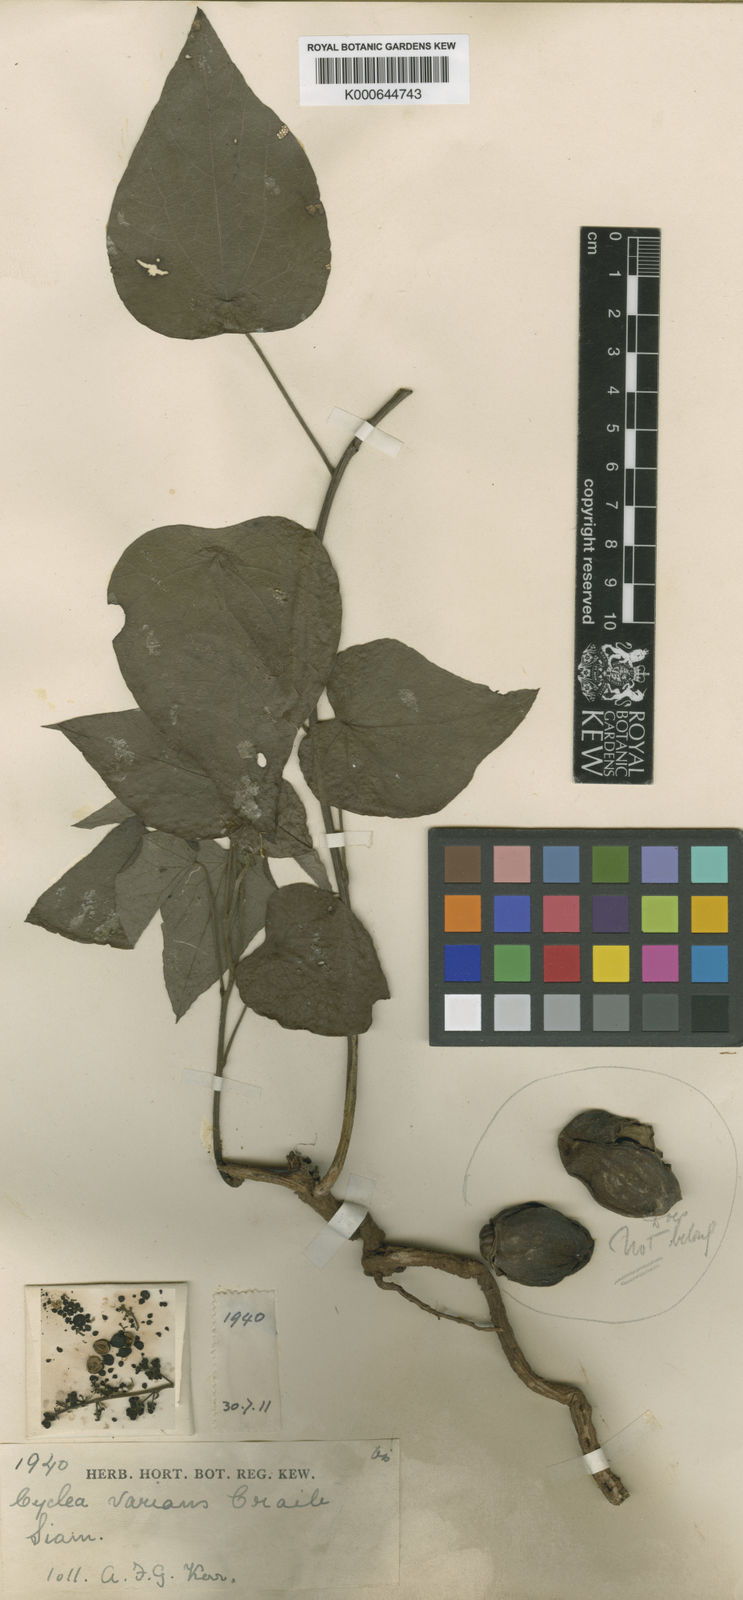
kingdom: Plantae
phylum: Tracheophyta
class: Magnoliopsida
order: Ranunculales
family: Menispermaceae
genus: Cyclea
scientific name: Cyclea varians
